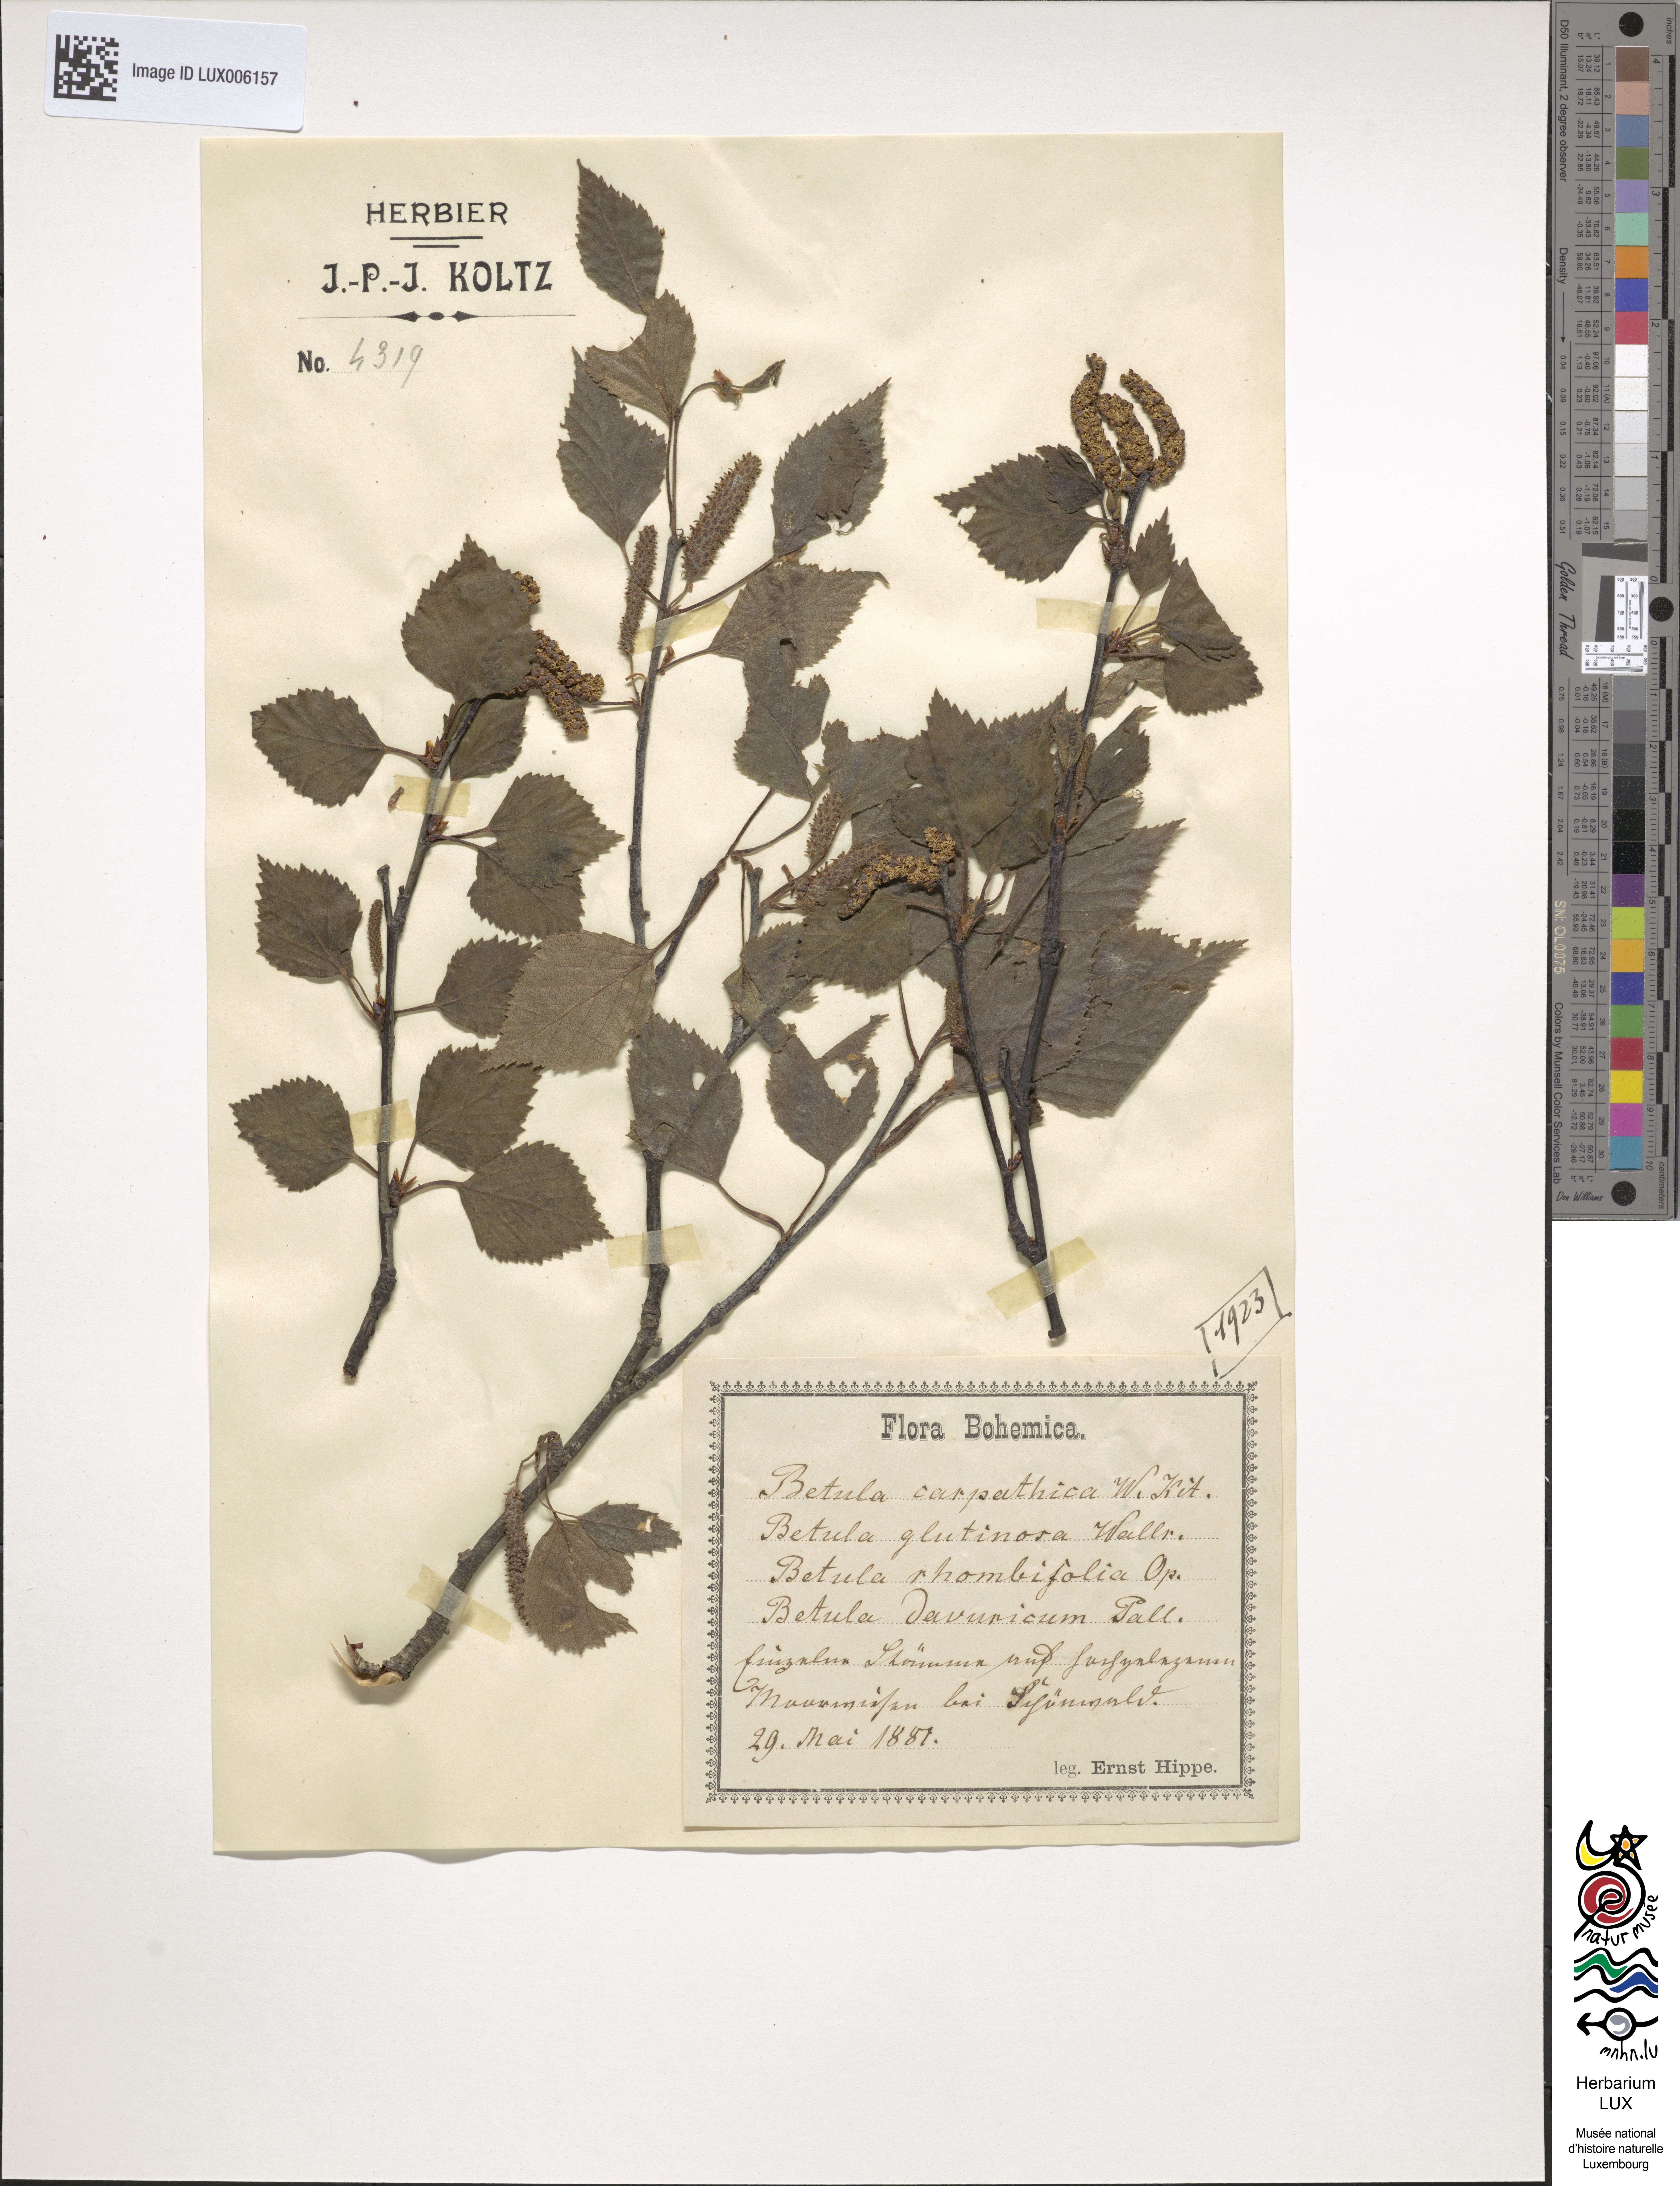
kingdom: Plantae
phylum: Tracheophyta
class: Magnoliopsida
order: Fagales
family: Betulaceae
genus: Betula
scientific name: Betula pubescens
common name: Downy birch
